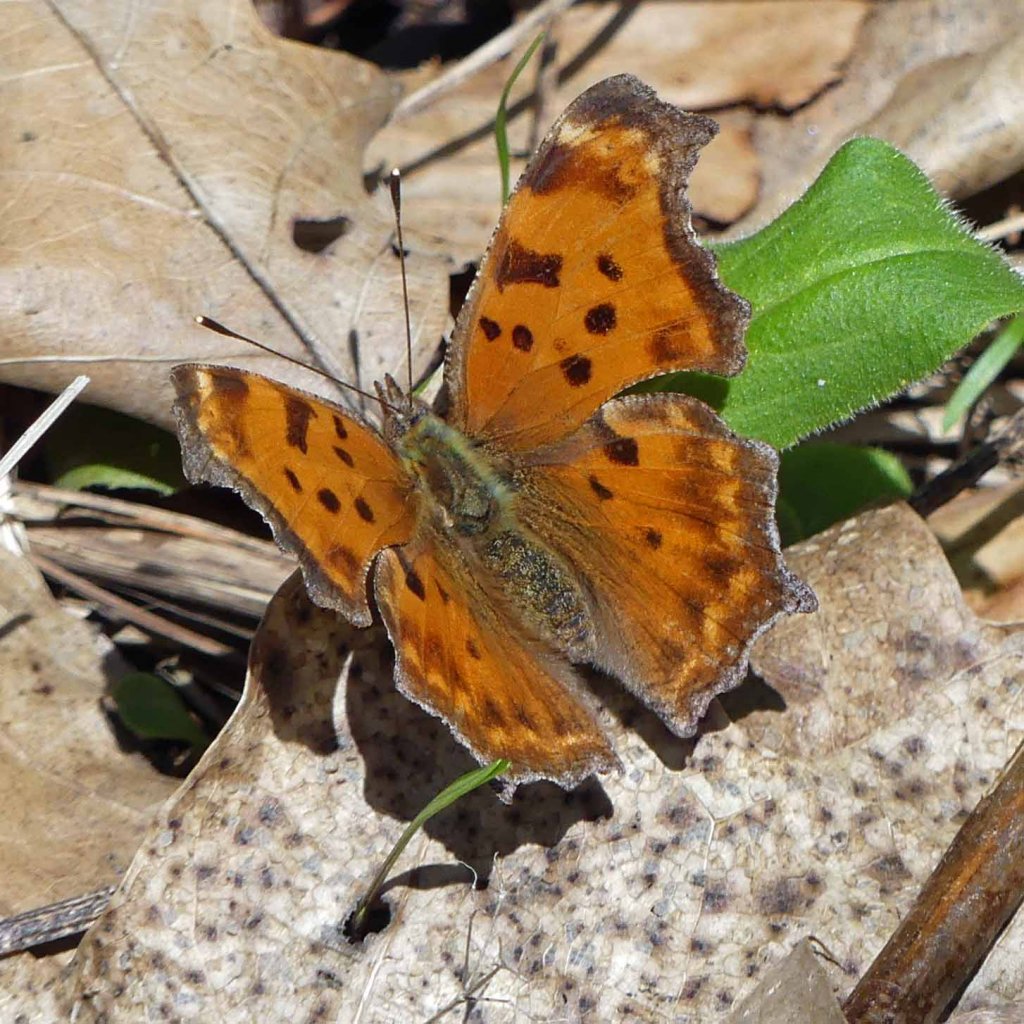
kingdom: Animalia
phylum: Arthropoda
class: Insecta
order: Lepidoptera
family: Nymphalidae
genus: Polygonia
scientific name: Polygonia comma
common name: Eastern Comma
